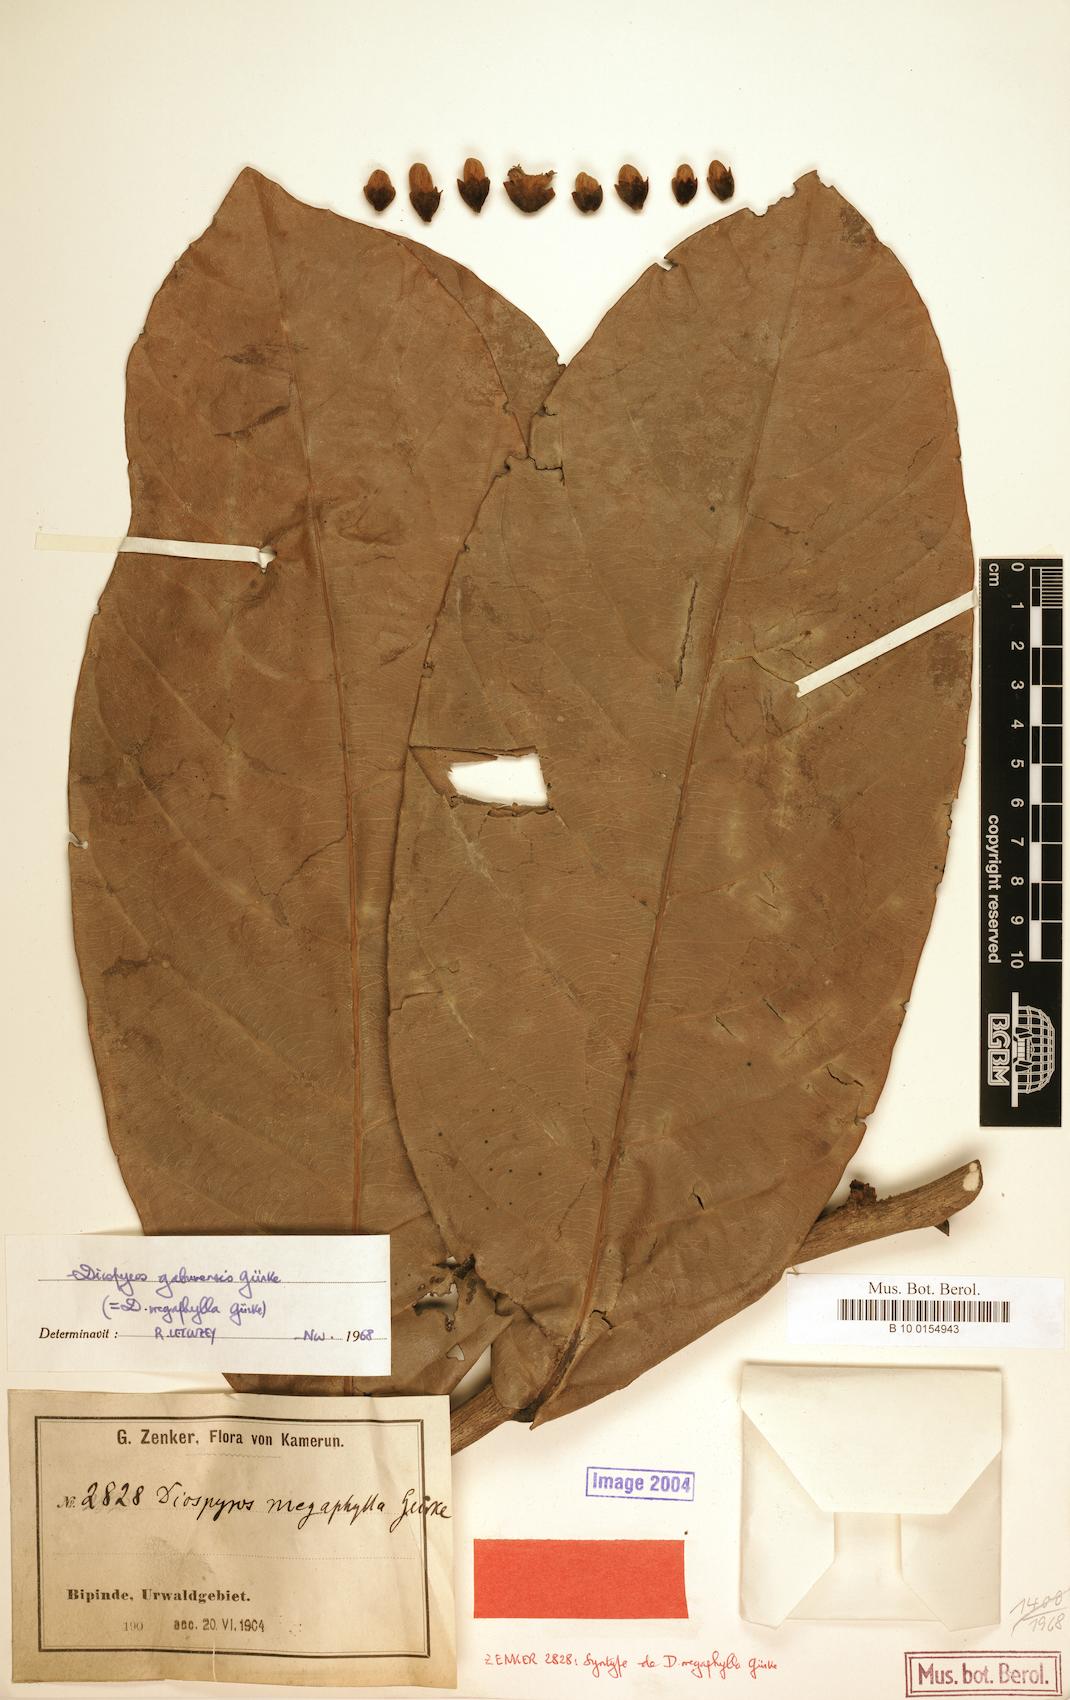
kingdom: Plantae
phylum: Tracheophyta
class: Magnoliopsida
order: Ericales
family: Ebenaceae
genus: Diospyros
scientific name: Diospyros gabunensis
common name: Flint bark tree
